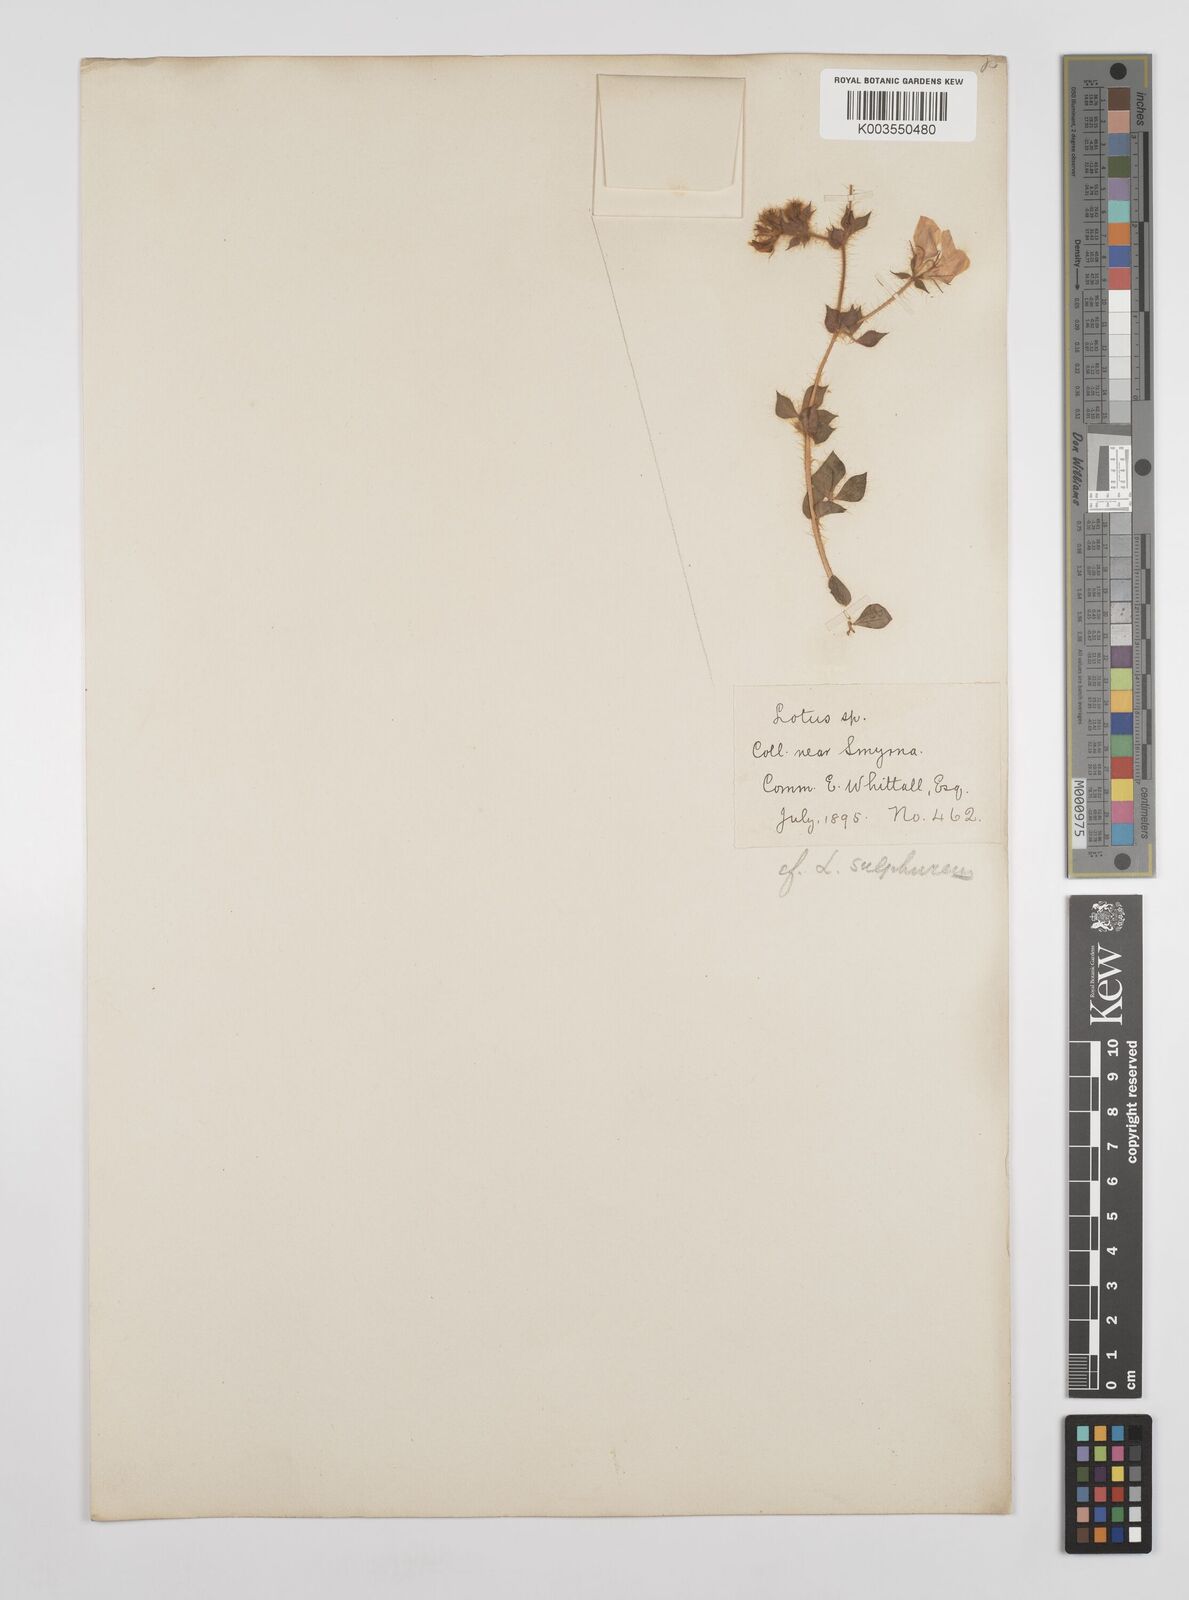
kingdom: Plantae
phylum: Tracheophyta
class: Magnoliopsida
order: Fabales
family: Fabaceae
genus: Lotus
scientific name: Lotus aegaeus
